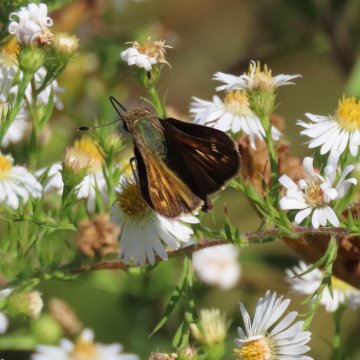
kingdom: Animalia
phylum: Arthropoda
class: Insecta
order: Lepidoptera
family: Hesperiidae
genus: Atalopedes
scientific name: Atalopedes campestris
